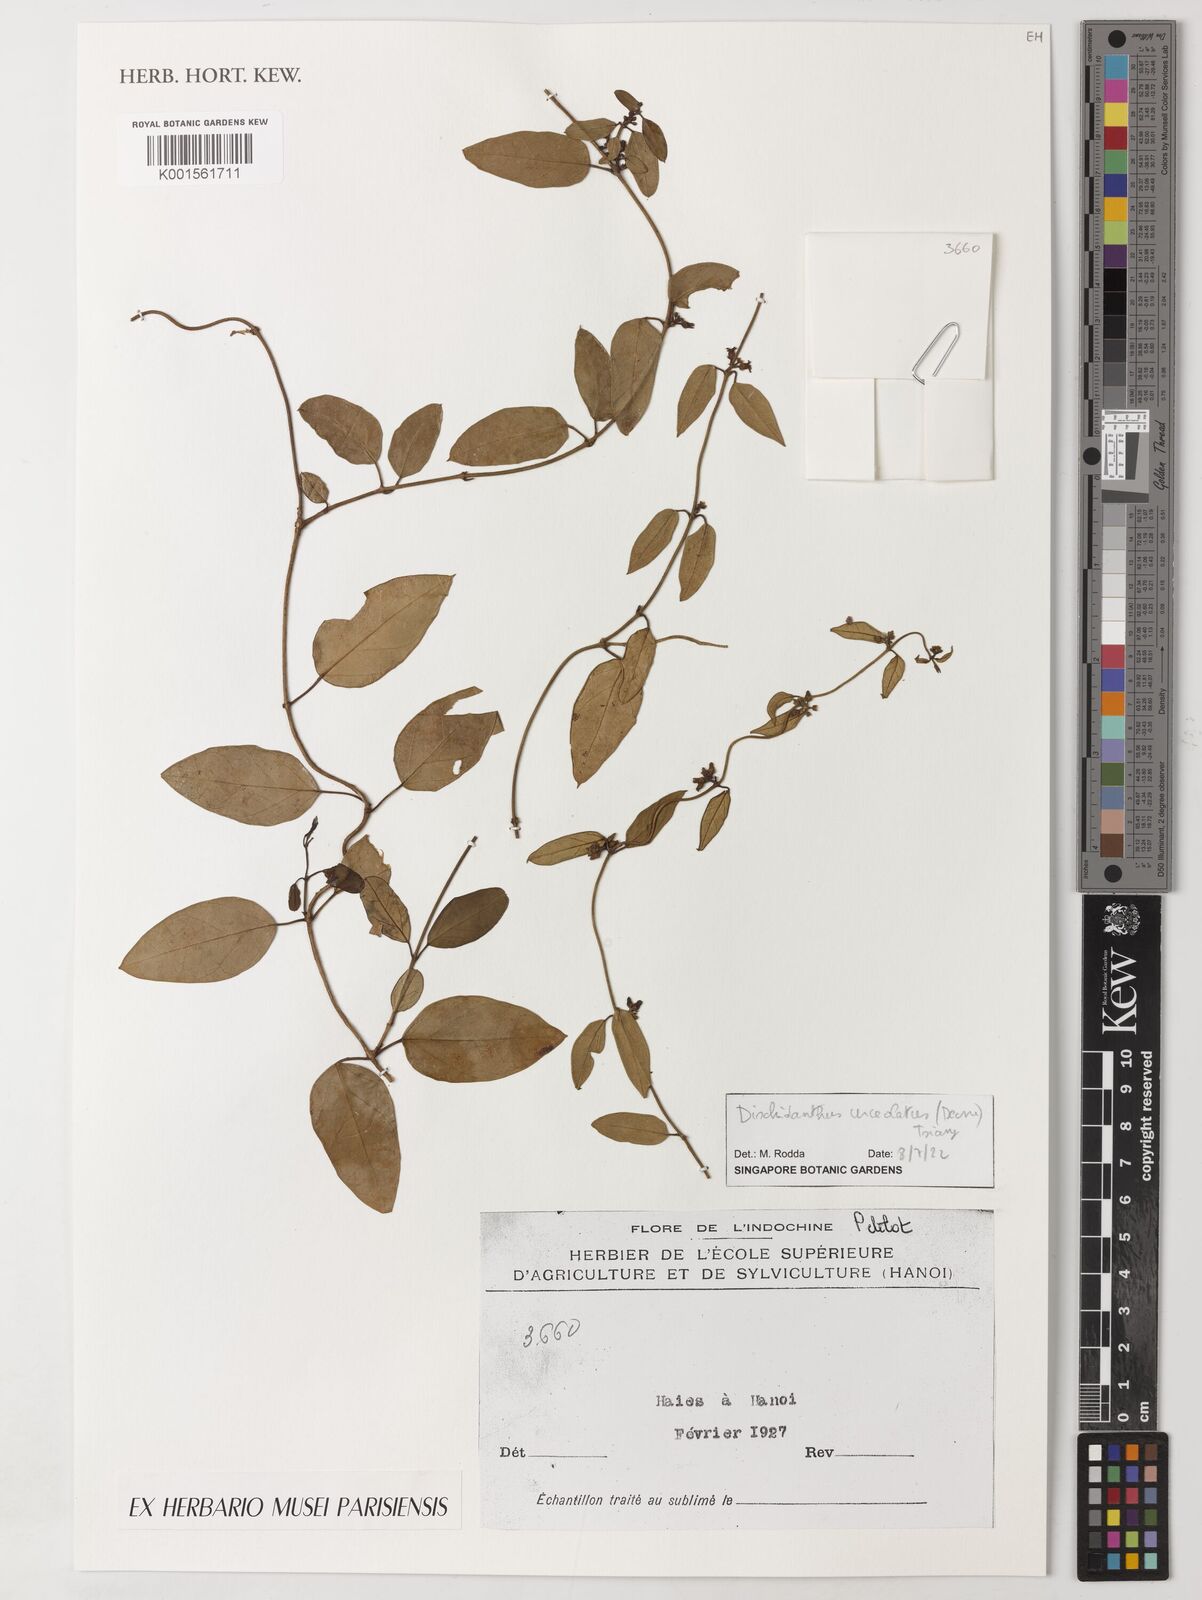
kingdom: Plantae
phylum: Tracheophyta
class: Magnoliopsida
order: Gentianales
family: Apocynaceae
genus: Dischidanthus
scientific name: Dischidanthus urceolatus
